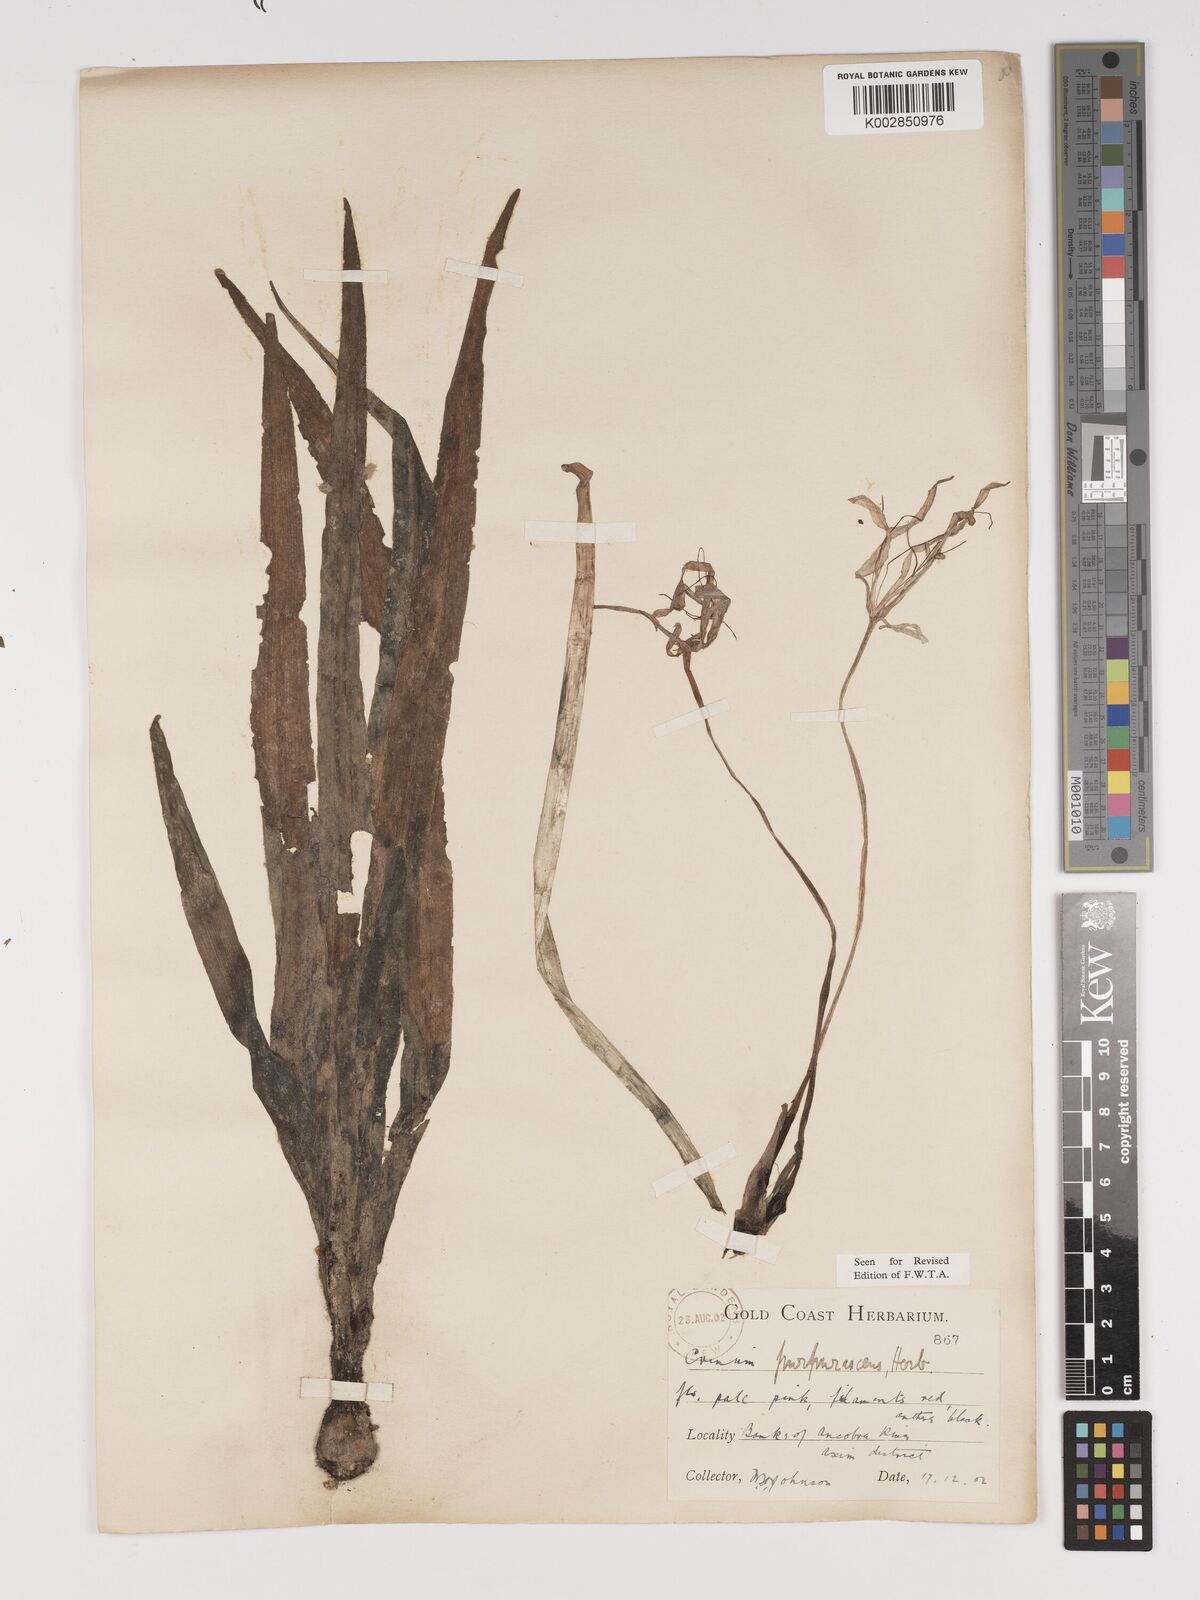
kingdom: Plantae
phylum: Tracheophyta
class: Liliopsida
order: Asparagales
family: Amaryllidaceae
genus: Crinum
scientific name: Crinum purpurascens
